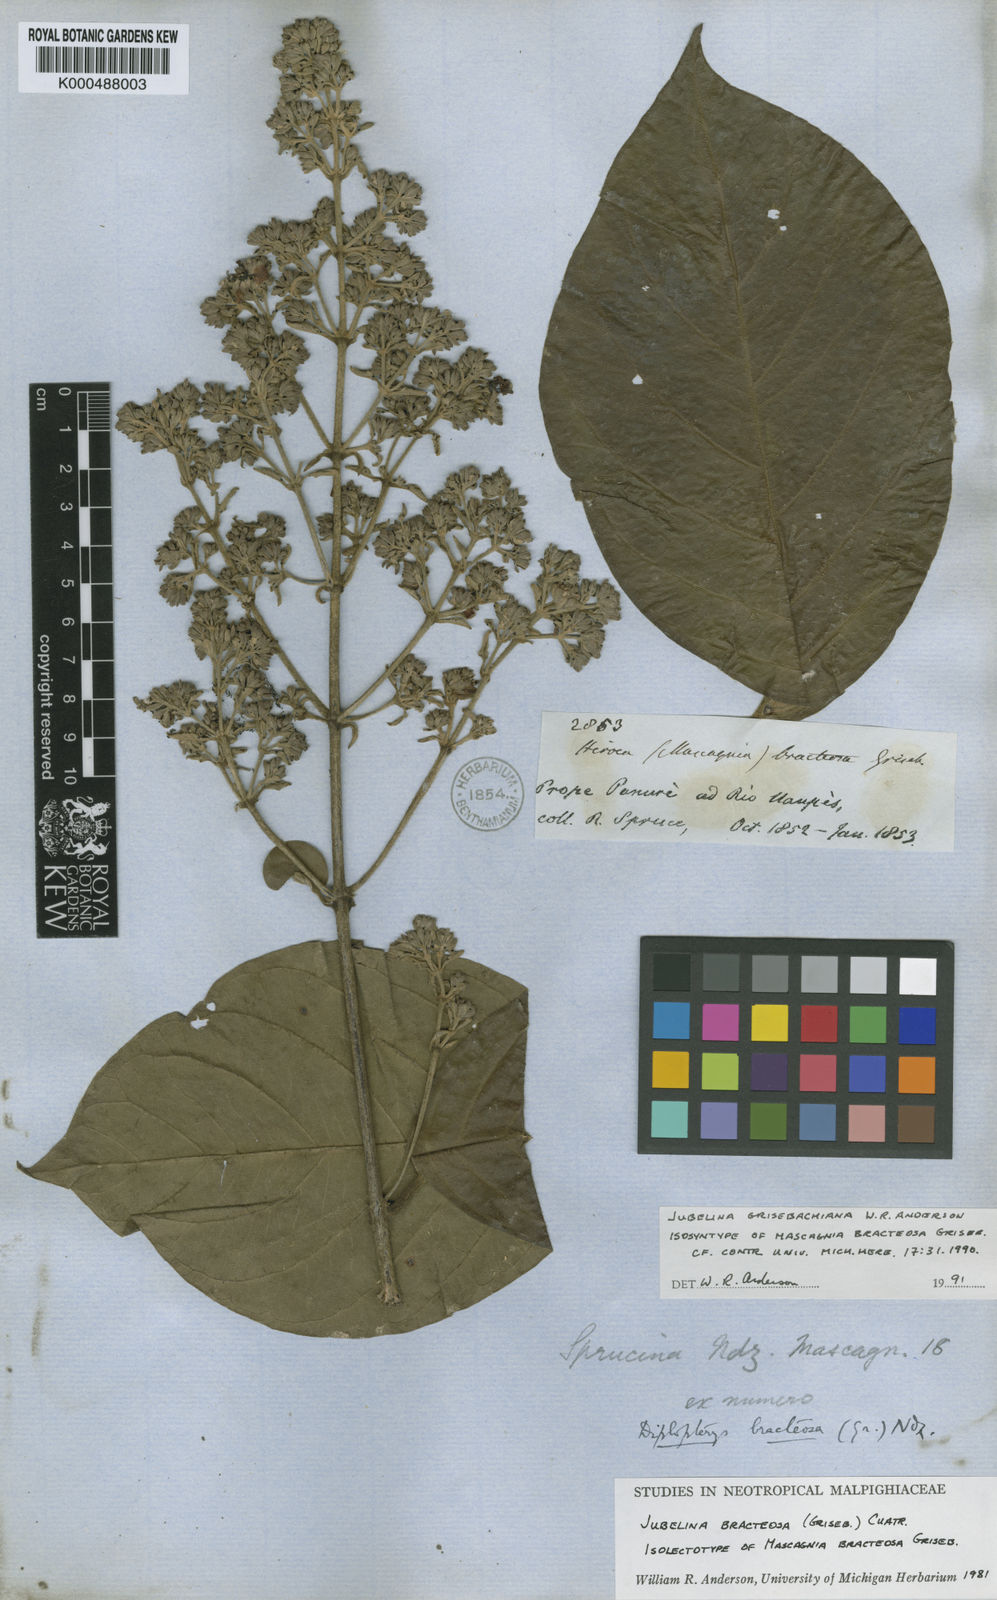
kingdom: Plantae
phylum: Tracheophyta
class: Magnoliopsida
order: Malpighiales
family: Malpighiaceae
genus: Jubelina
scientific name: Jubelina grisebachiana
